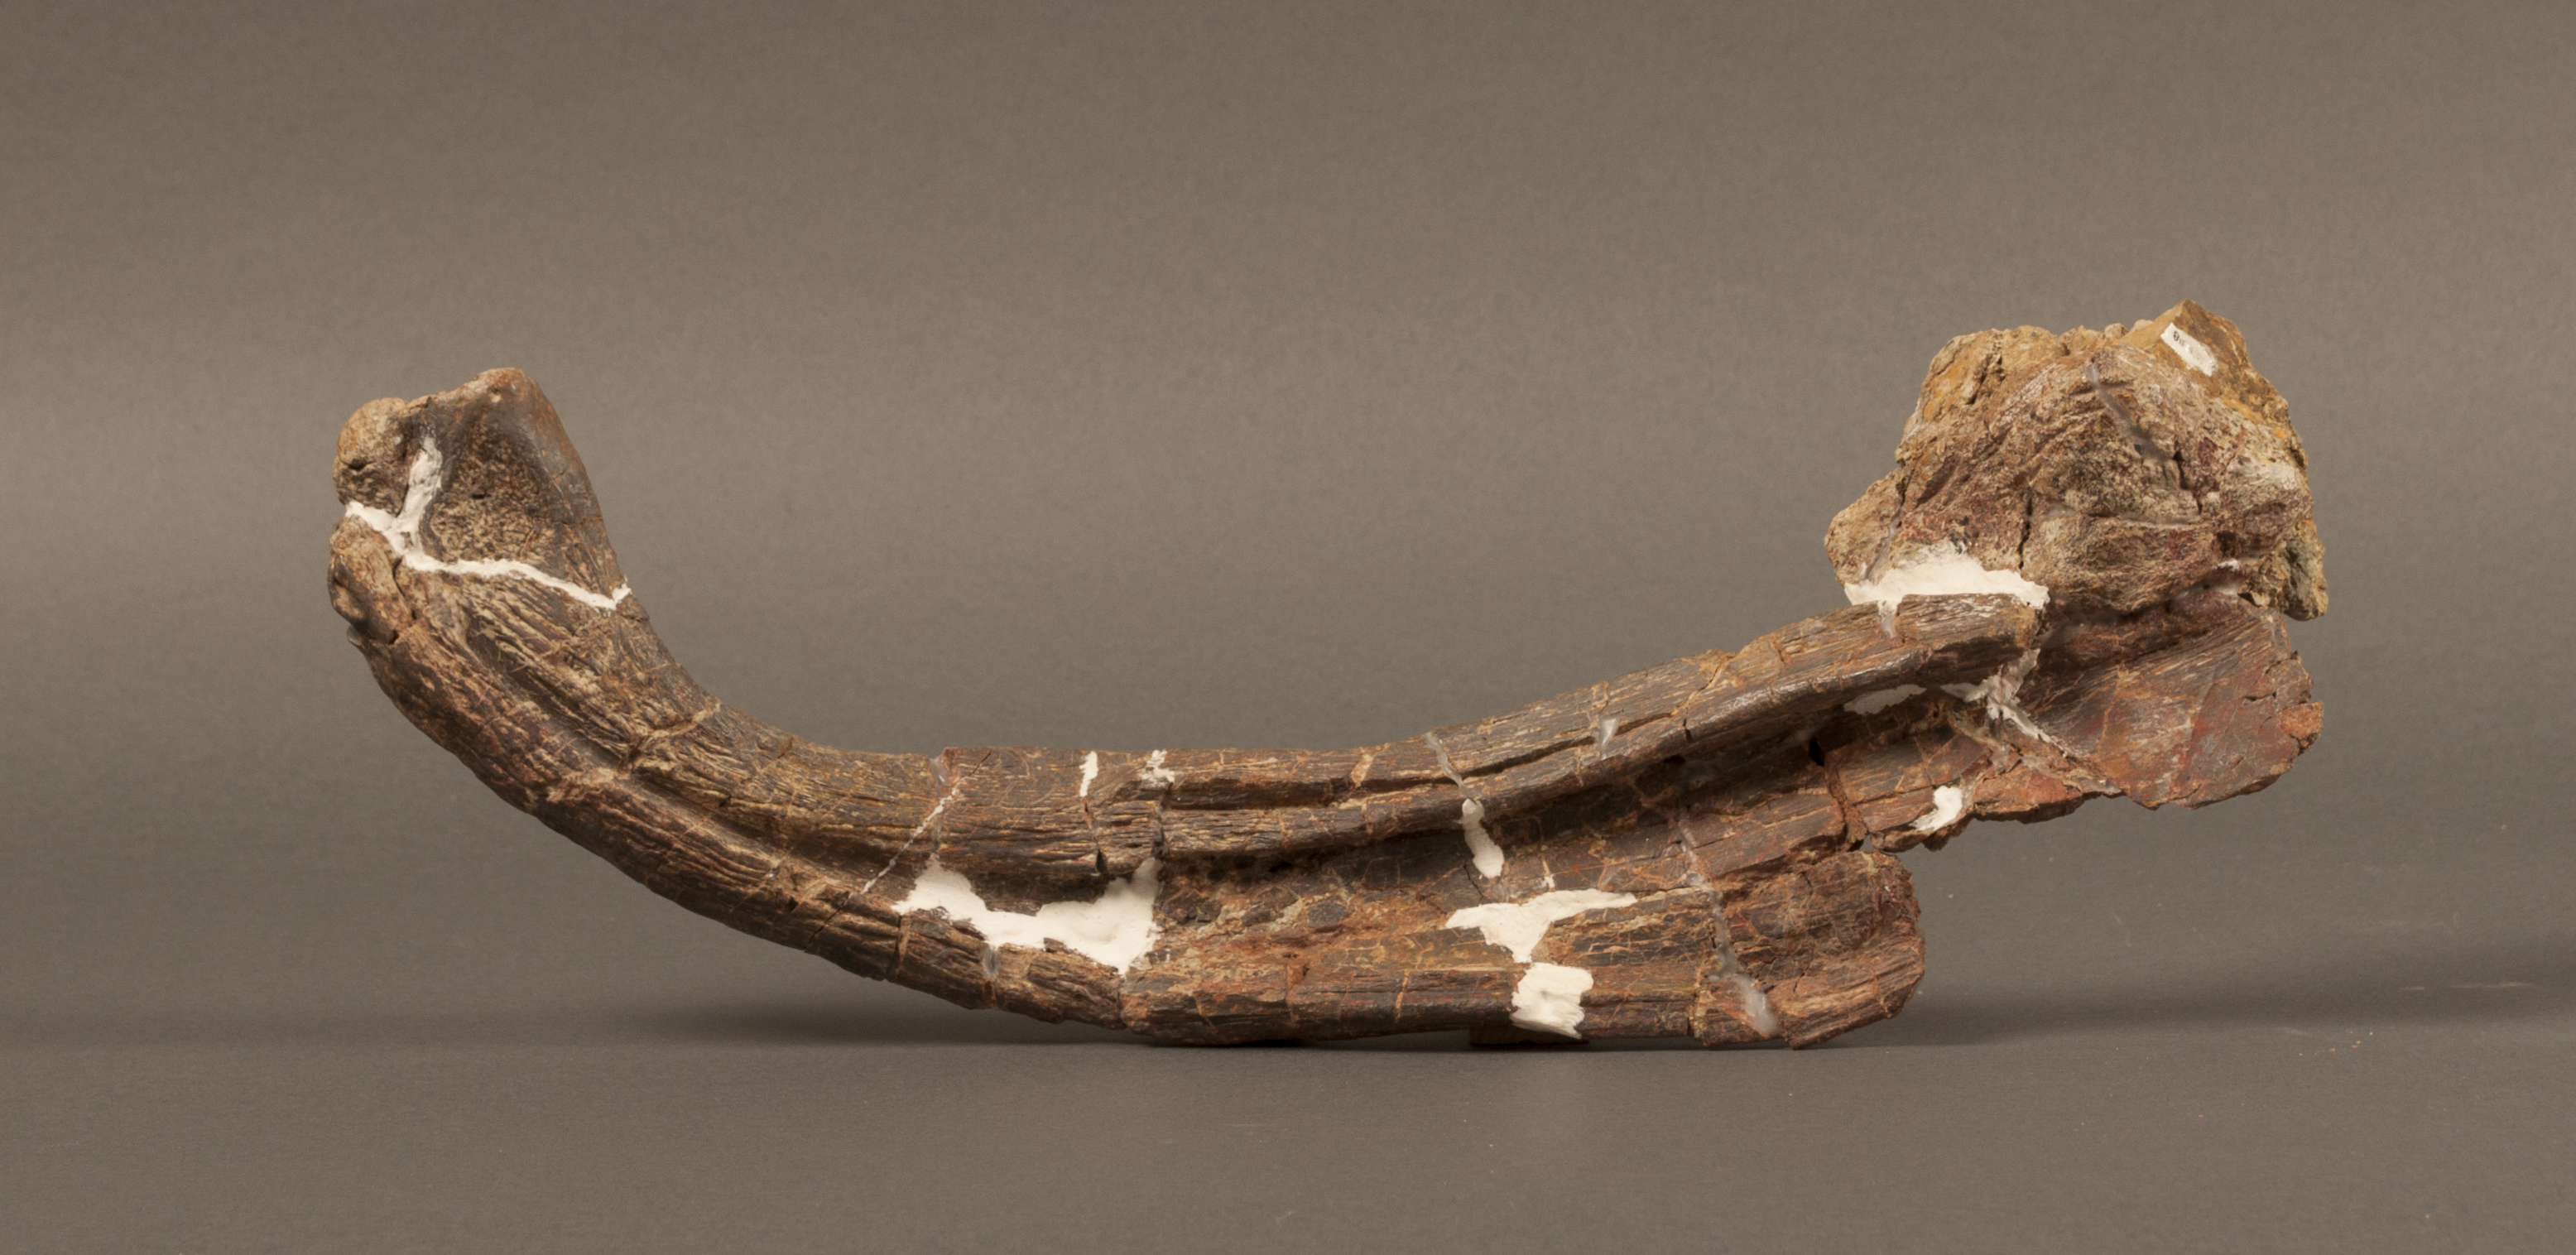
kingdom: Animalia
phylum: Chordata
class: Amphibia
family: Mastodonsauridae
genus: Mastodonsaurus
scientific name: Mastodonsaurus
